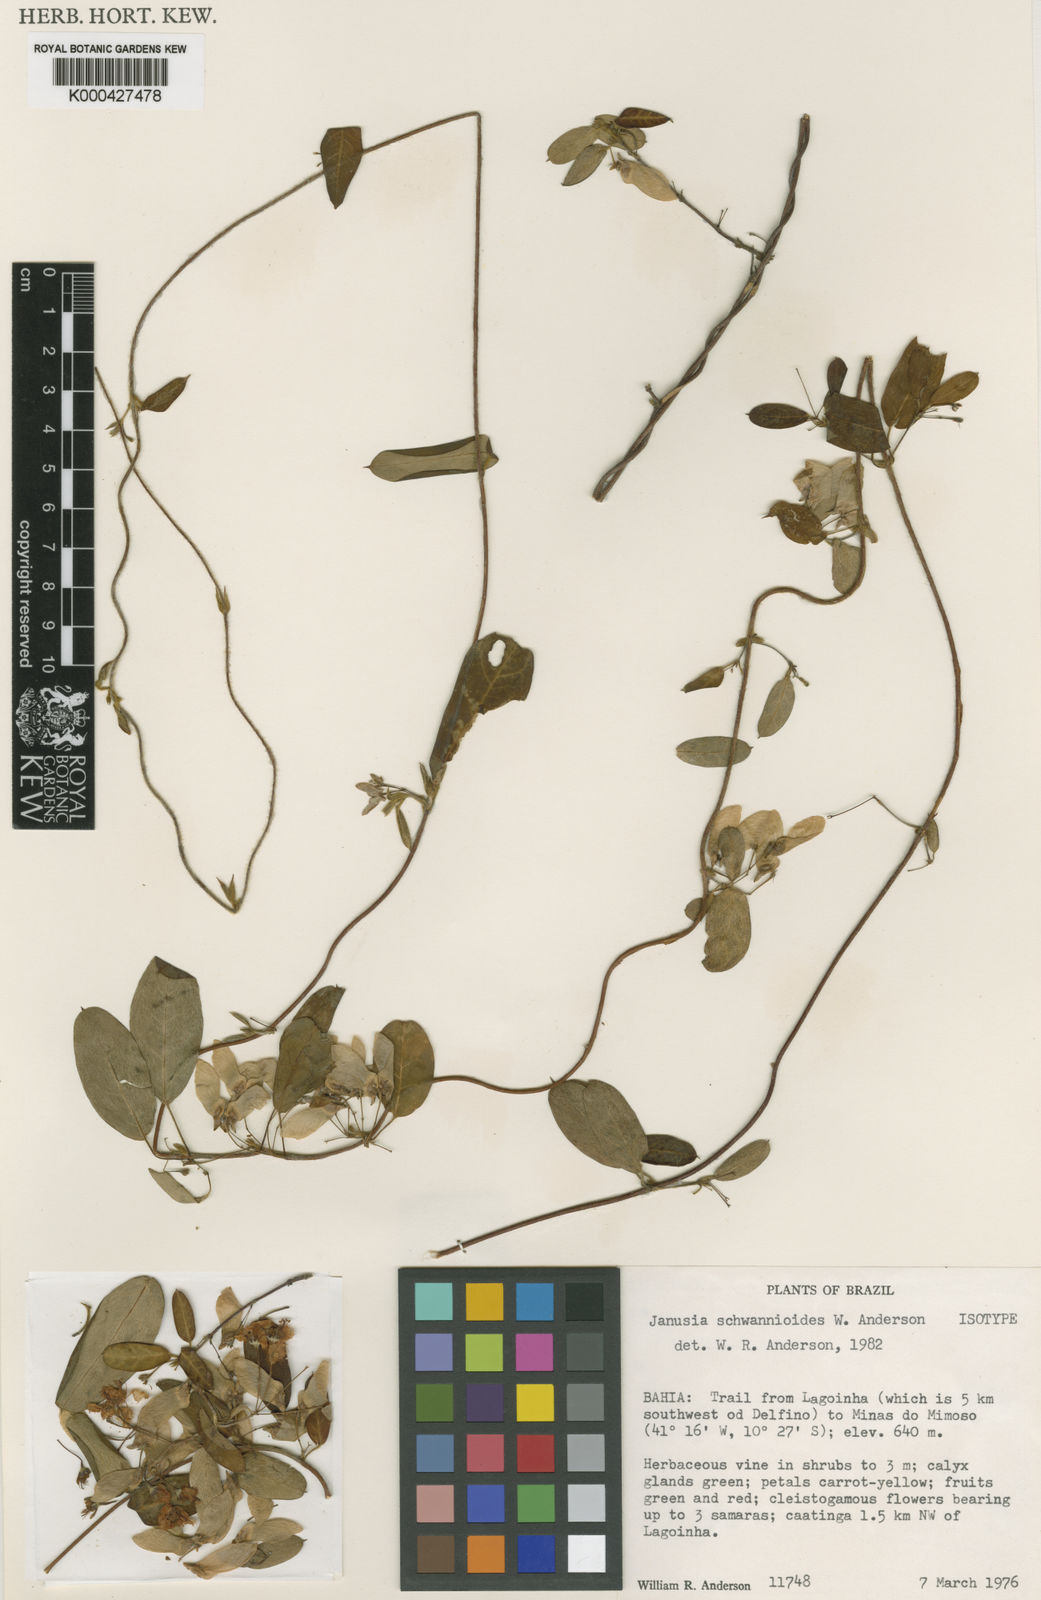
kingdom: Plantae
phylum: Tracheophyta
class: Magnoliopsida
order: Malpighiales
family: Malpighiaceae
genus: Janusia
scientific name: Janusia schwannioides
